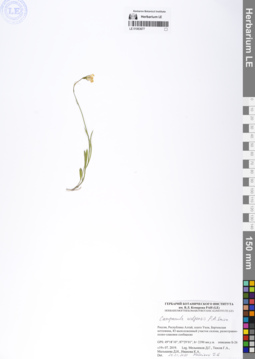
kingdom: Plantae
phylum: Tracheophyta
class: Magnoliopsida
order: Asterales
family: Campanulaceae
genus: Campanula
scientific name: Campanula stevenii
